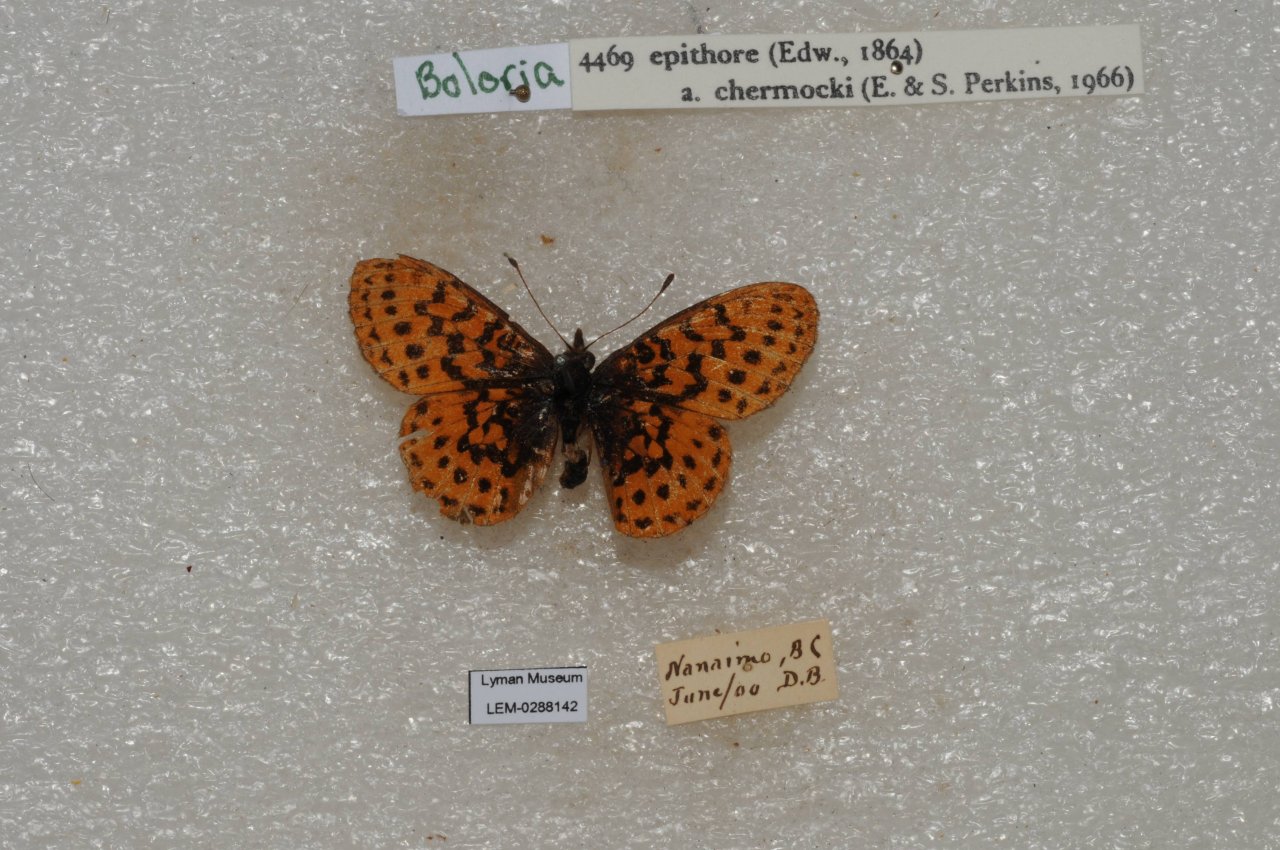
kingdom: Animalia
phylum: Arthropoda
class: Insecta
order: Lepidoptera
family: Nymphalidae
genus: Boloria
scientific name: Boloria epithore
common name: Pacific Fritillary
